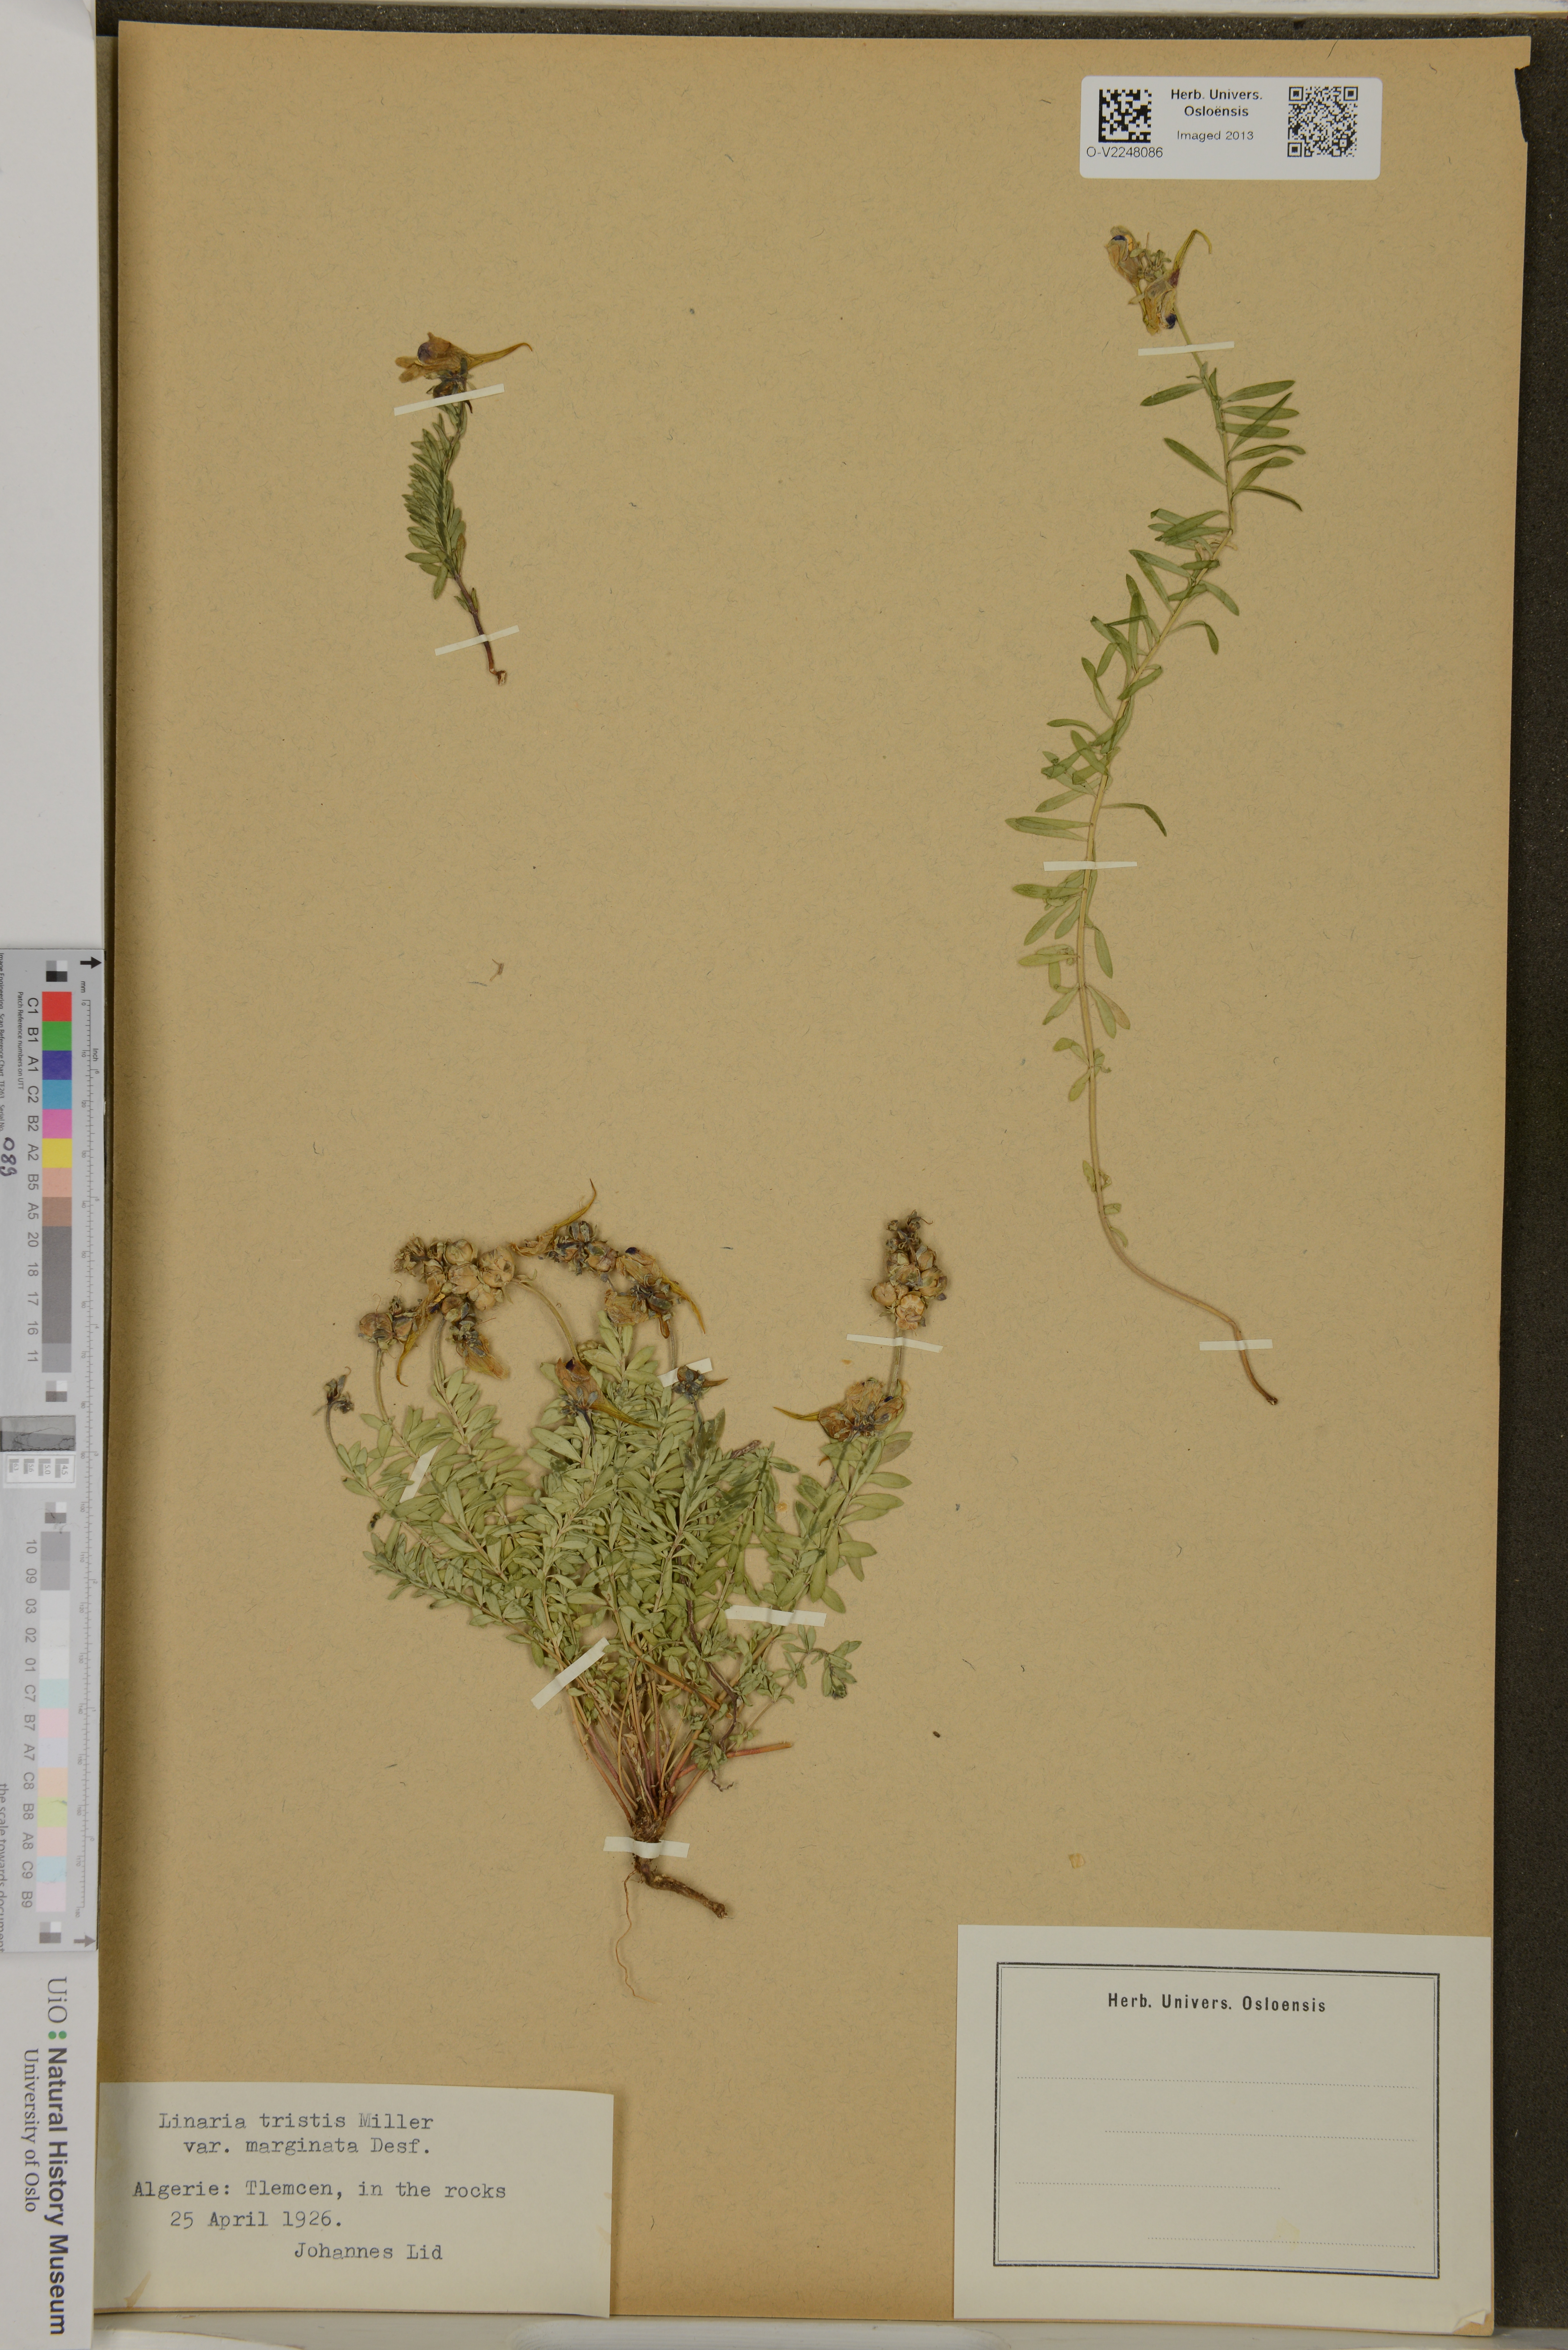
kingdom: Plantae
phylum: Tracheophyta
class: Magnoliopsida
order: Lamiales
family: Plantaginaceae
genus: Linaria
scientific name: Linaria tristis
